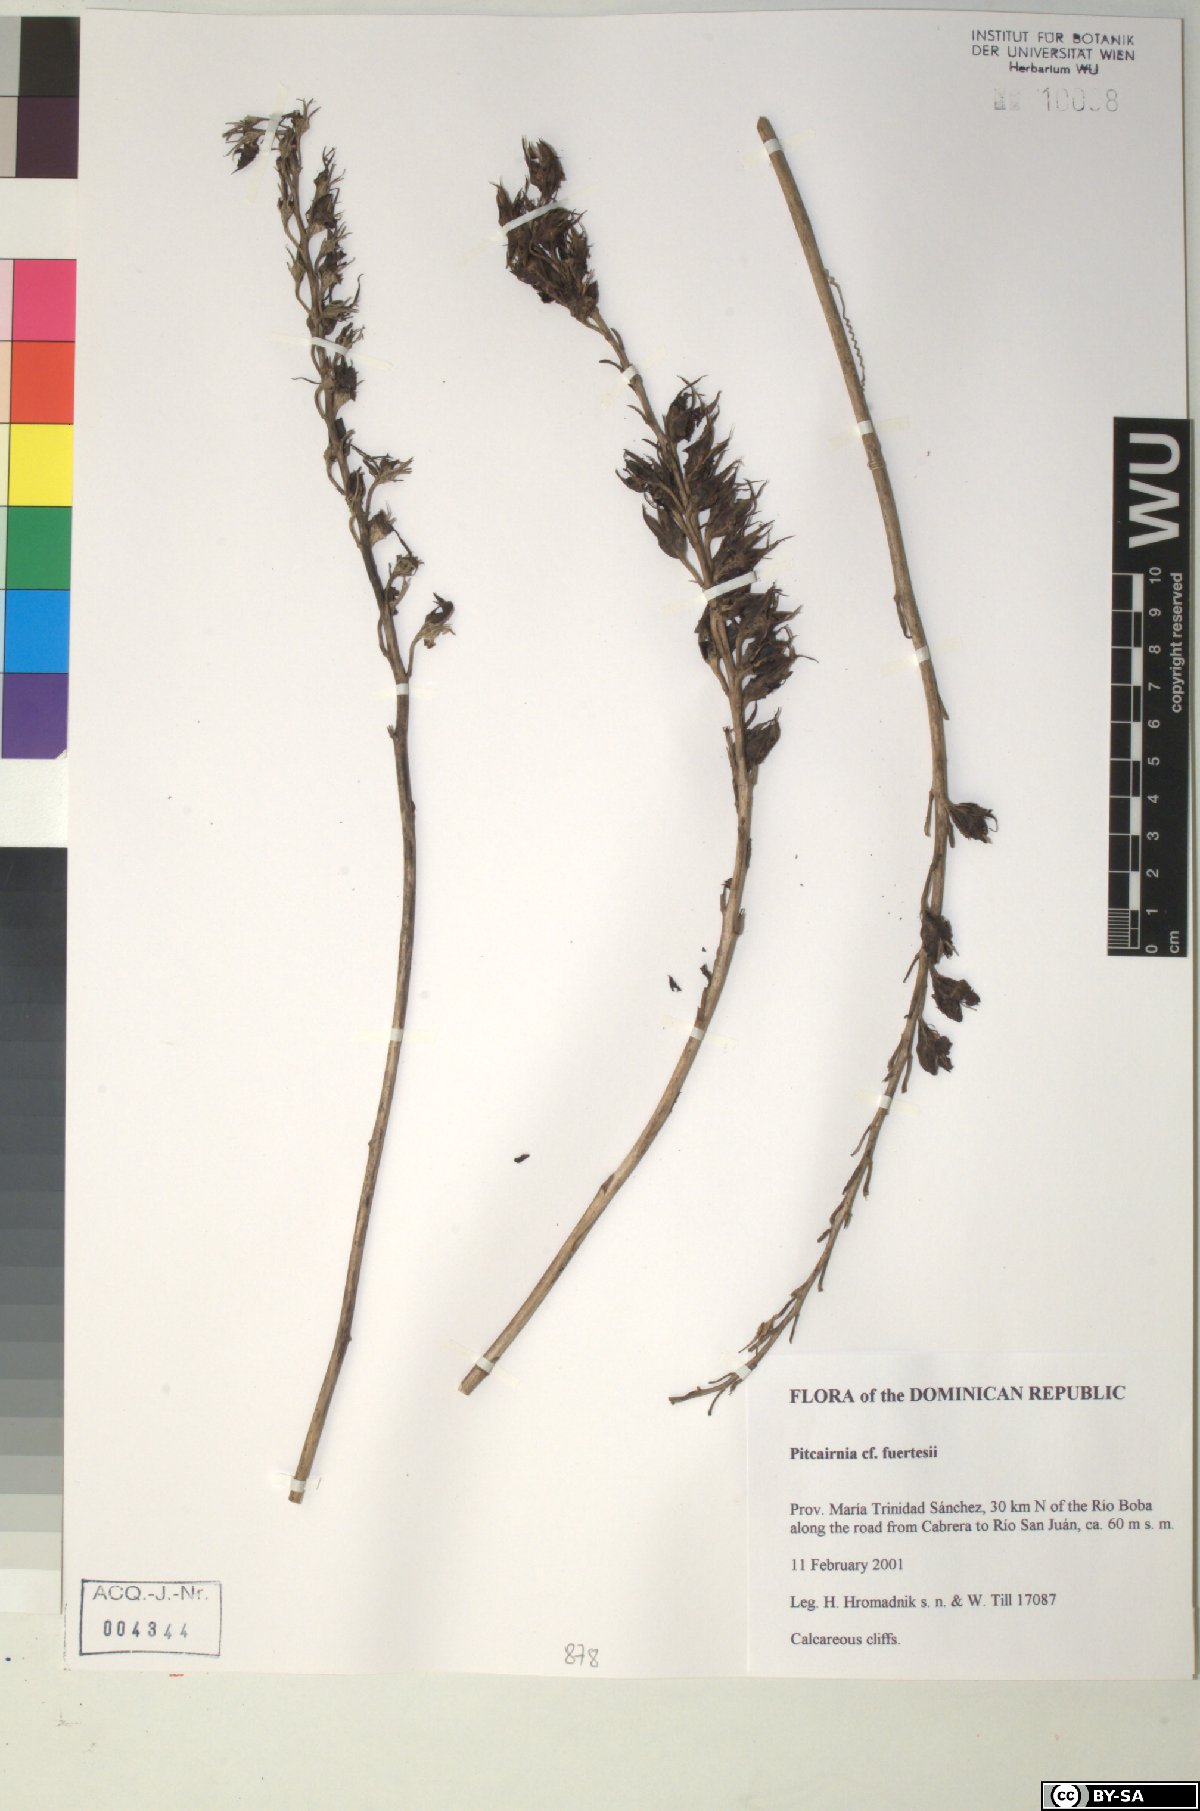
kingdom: Plantae
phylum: Tracheophyta
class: Liliopsida
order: Poales
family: Bromeliaceae
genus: Pitcairnia
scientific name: Pitcairnia fuertesii
